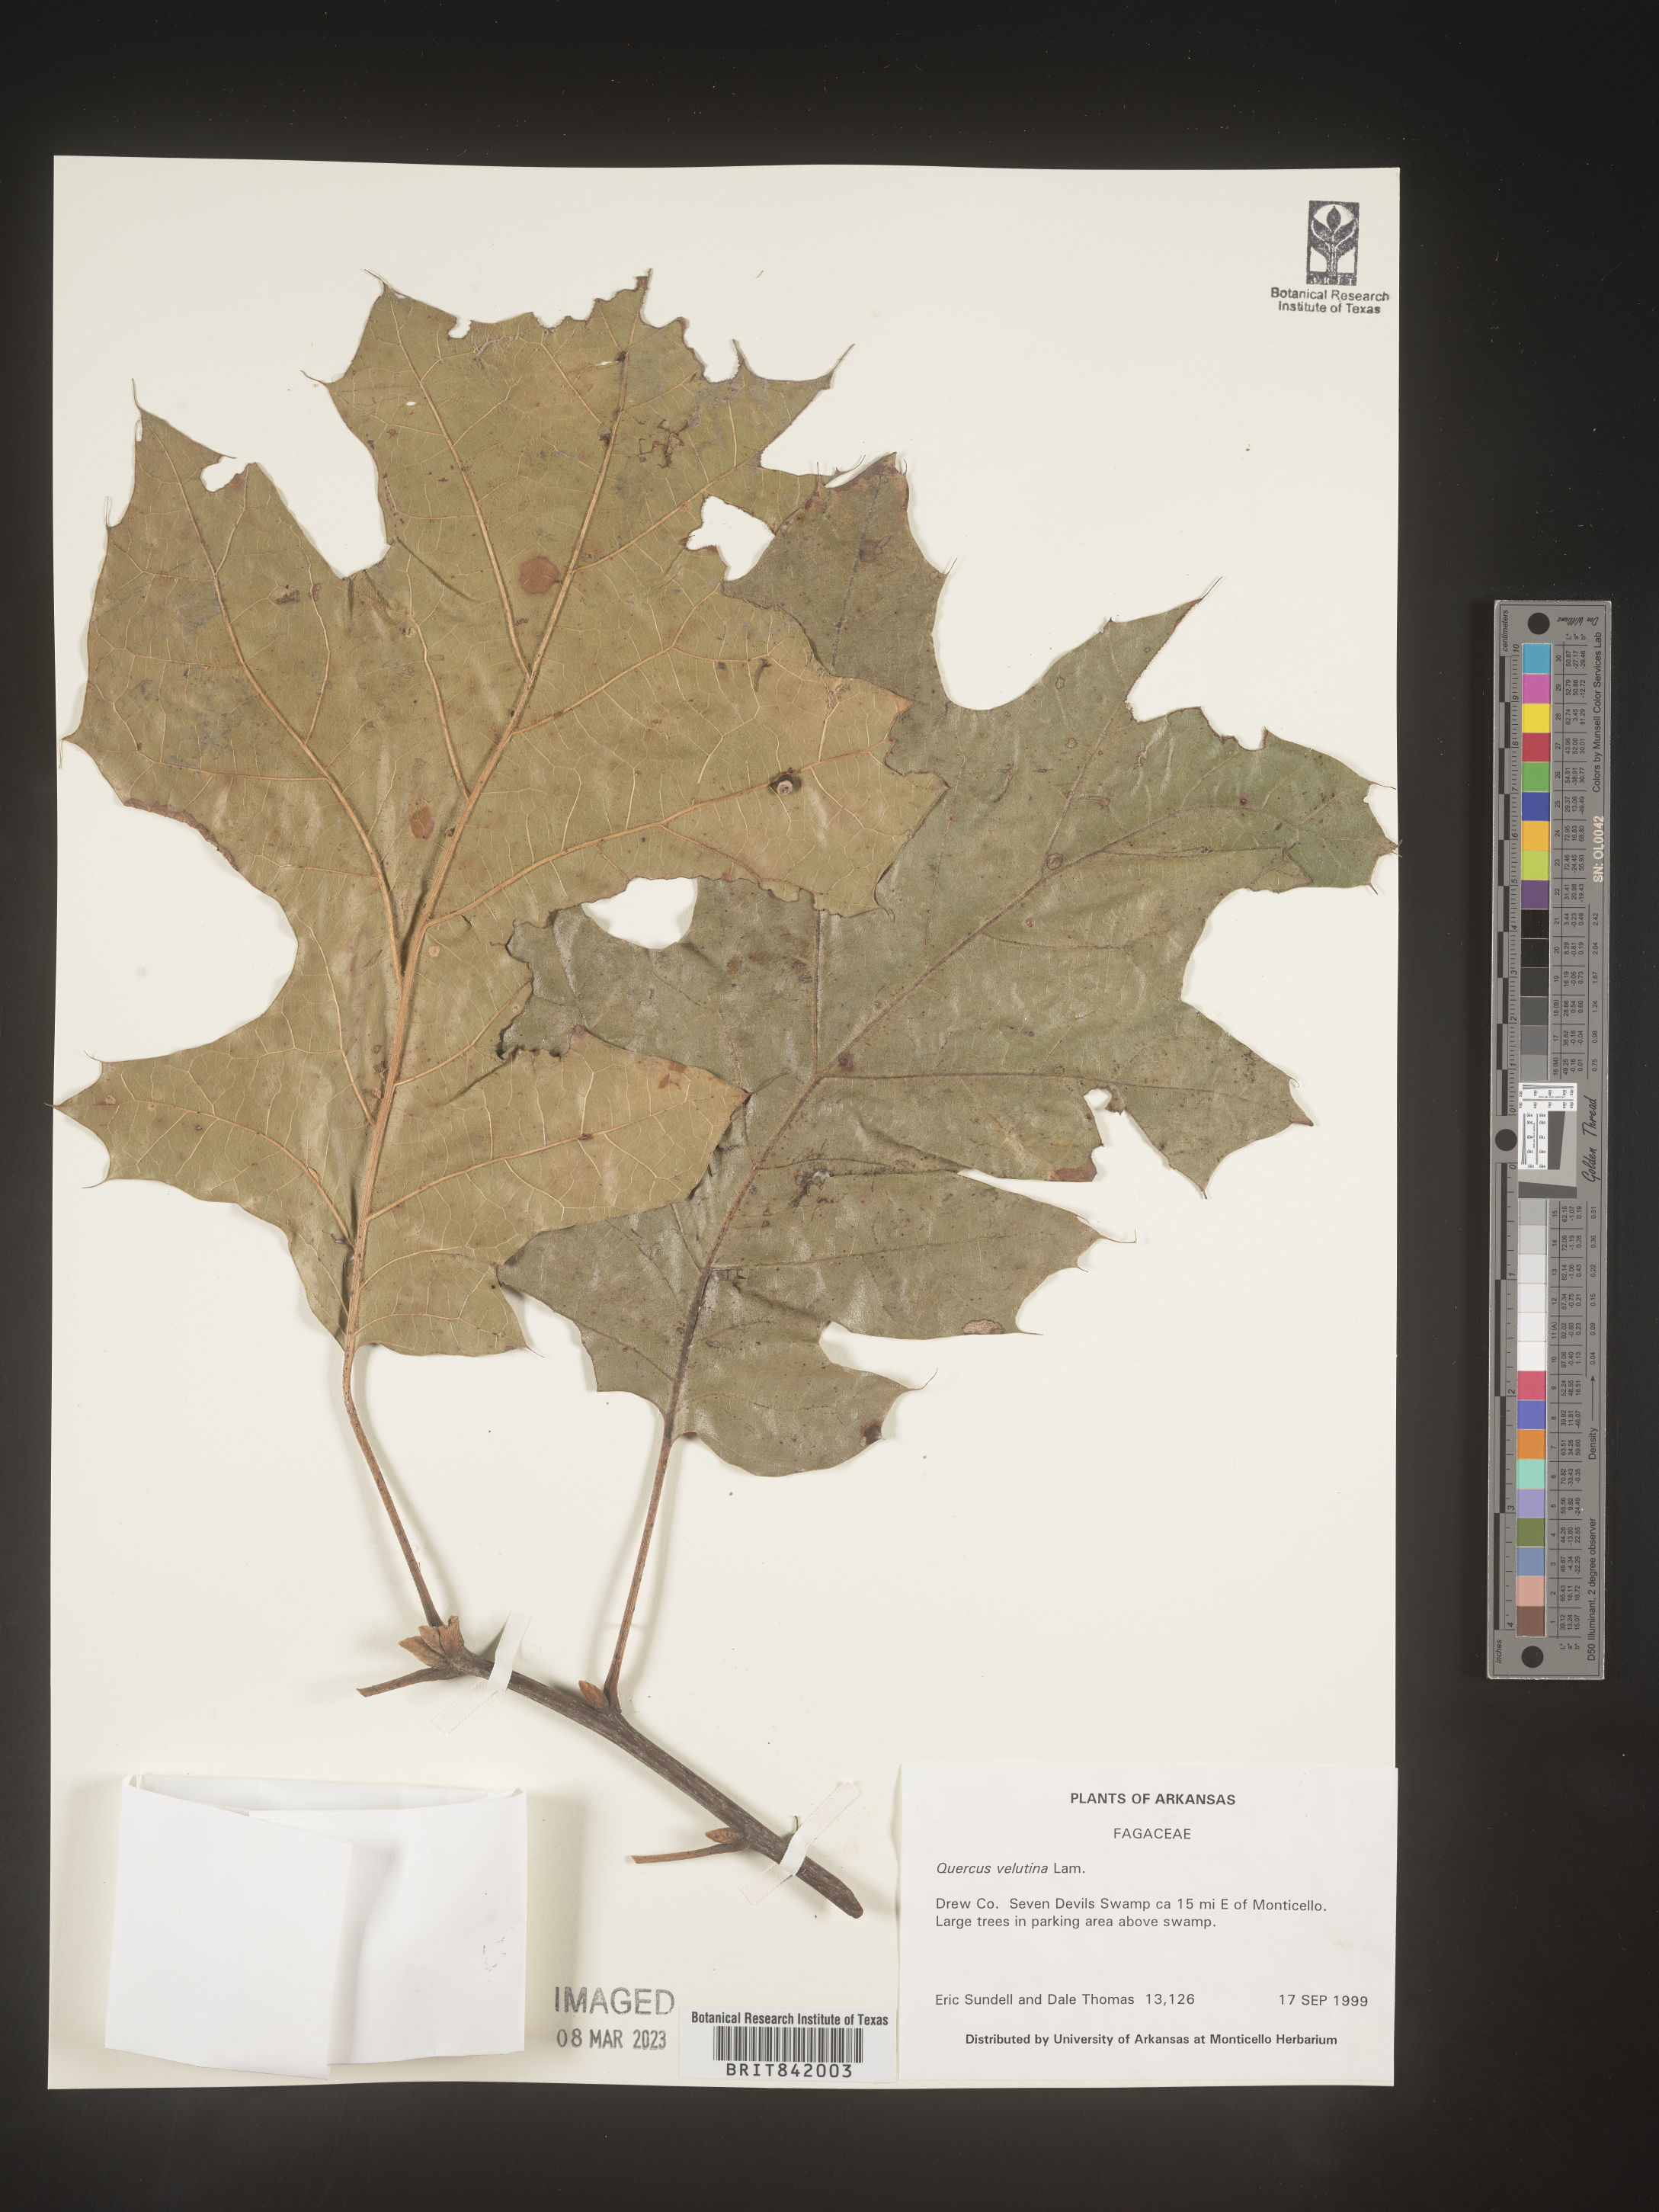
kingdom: Plantae
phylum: Tracheophyta
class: Magnoliopsida
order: Fagales
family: Fagaceae
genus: Quercus
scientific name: Quercus velutina
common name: Black oak
